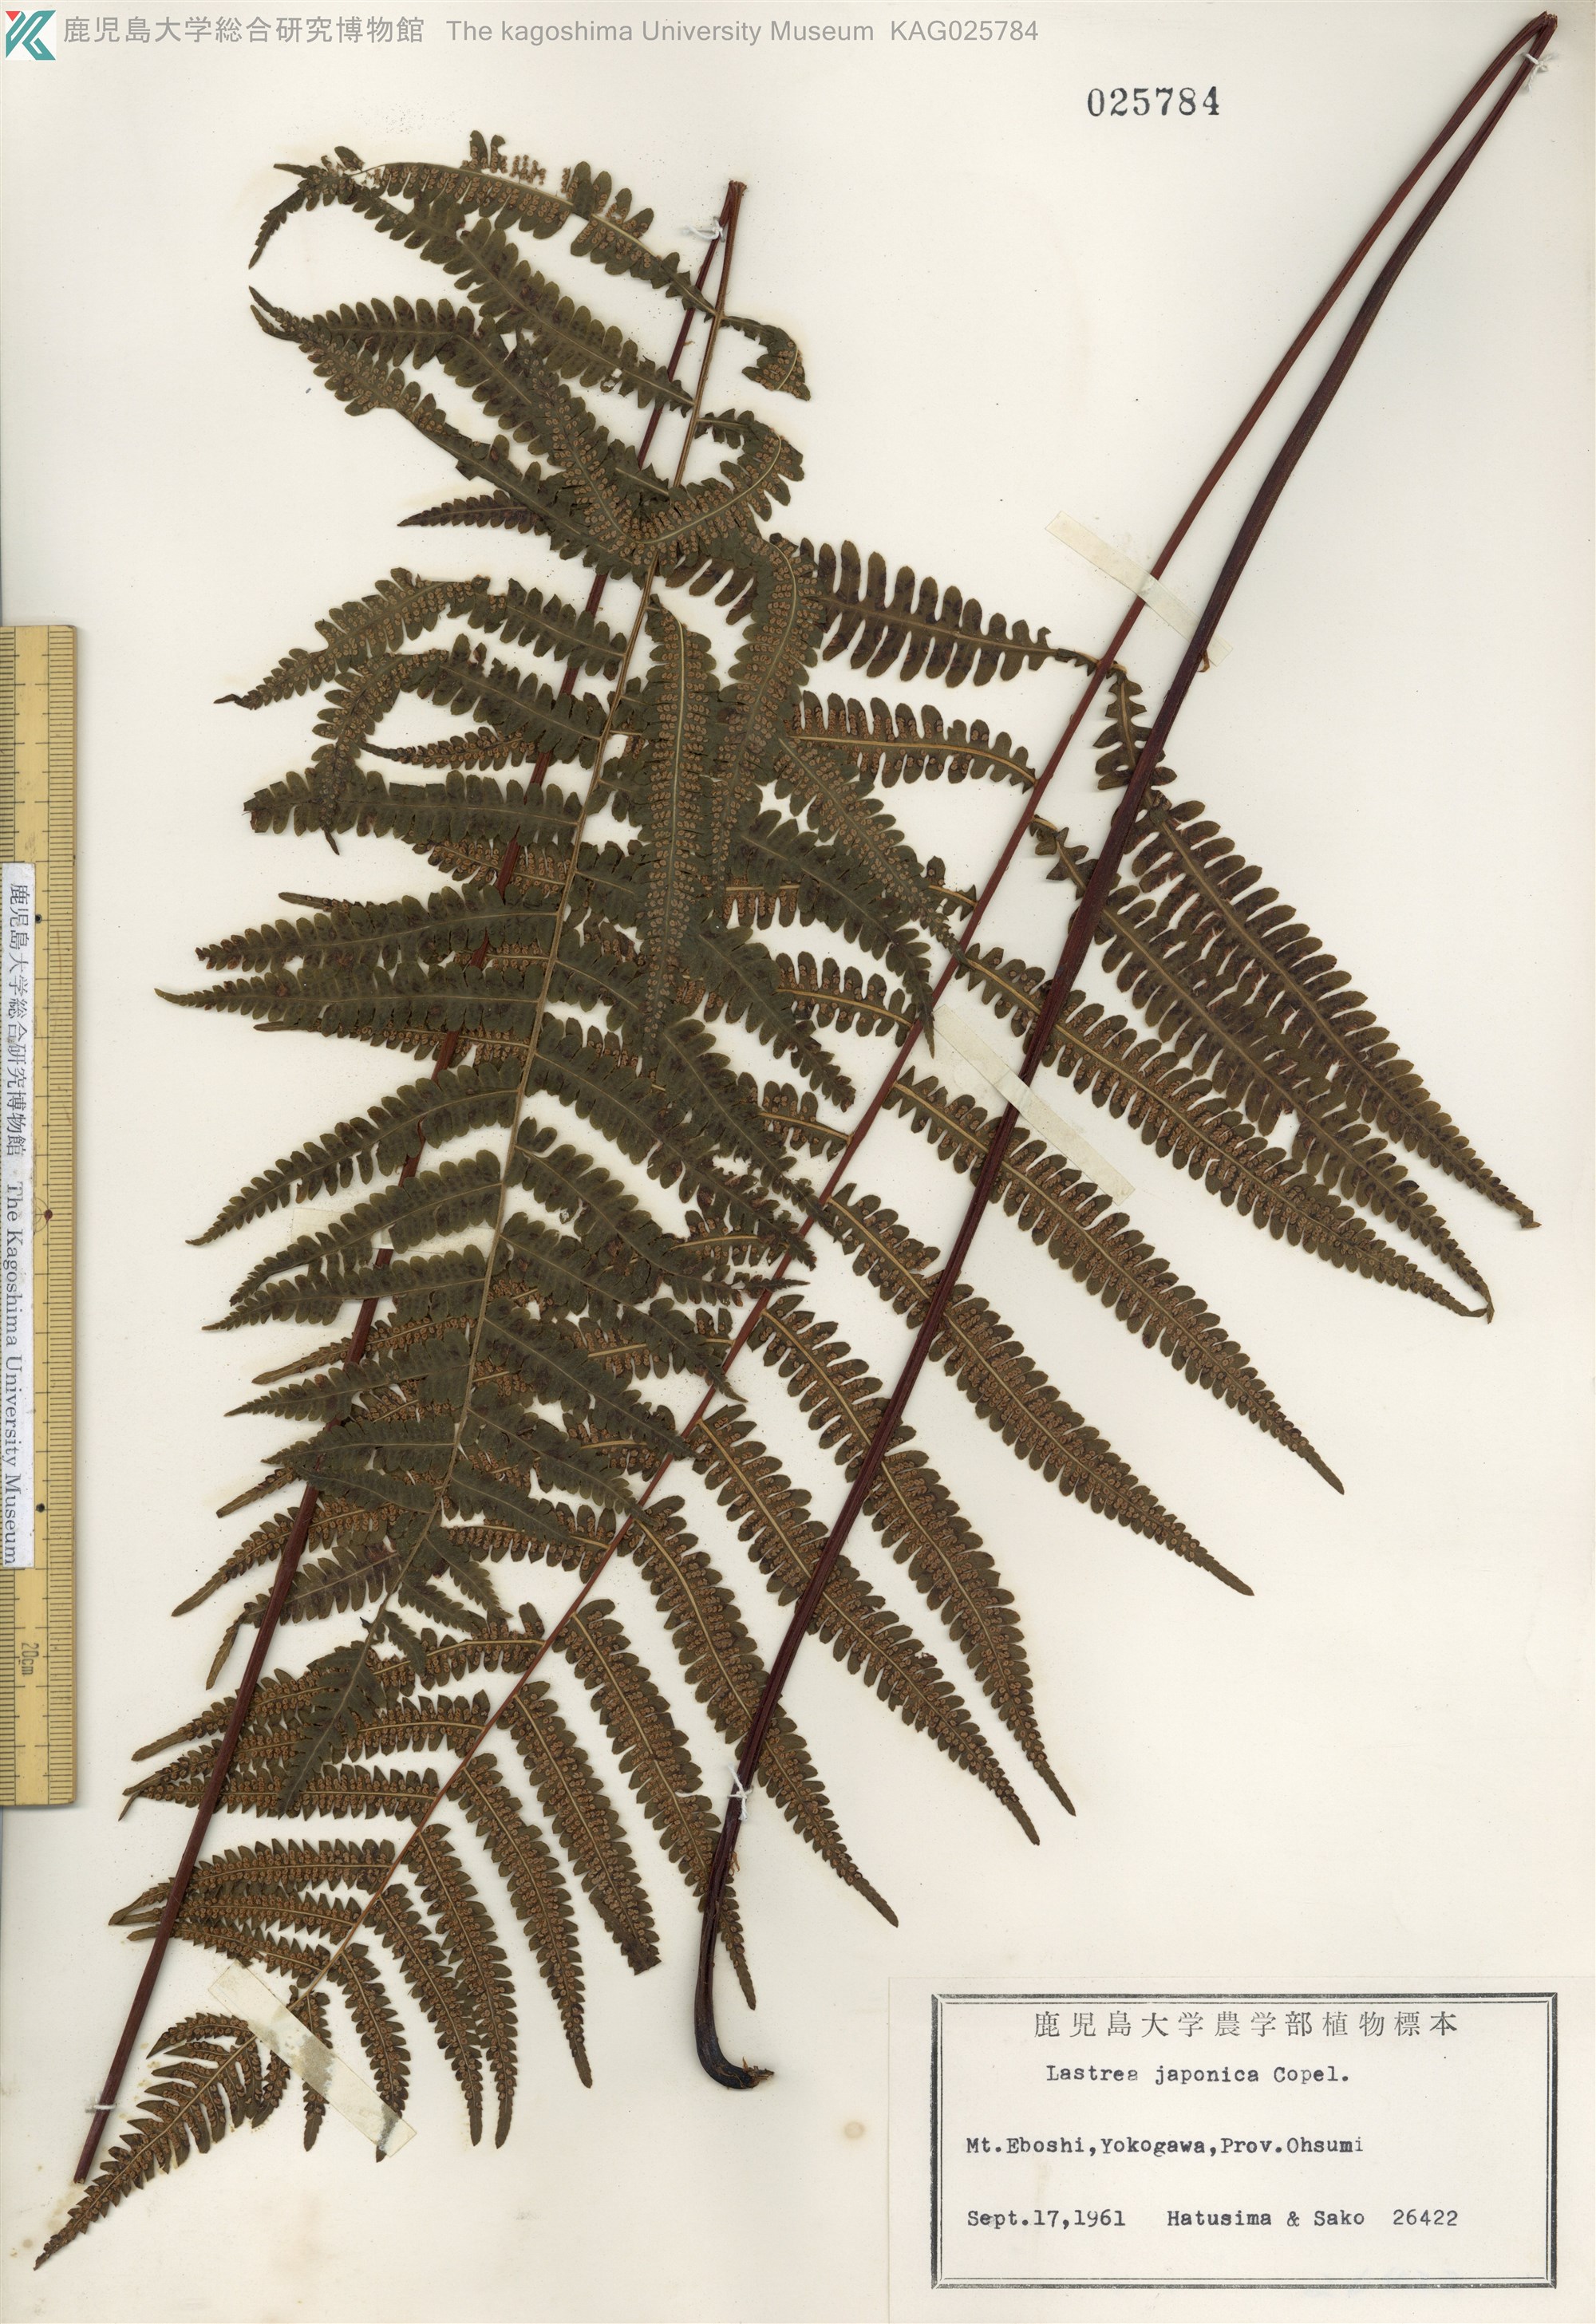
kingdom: Plantae
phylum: Tracheophyta
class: Polypodiopsida
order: Polypodiales
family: Thelypteridaceae
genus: Coryphopteris
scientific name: Coryphopteris japonica
